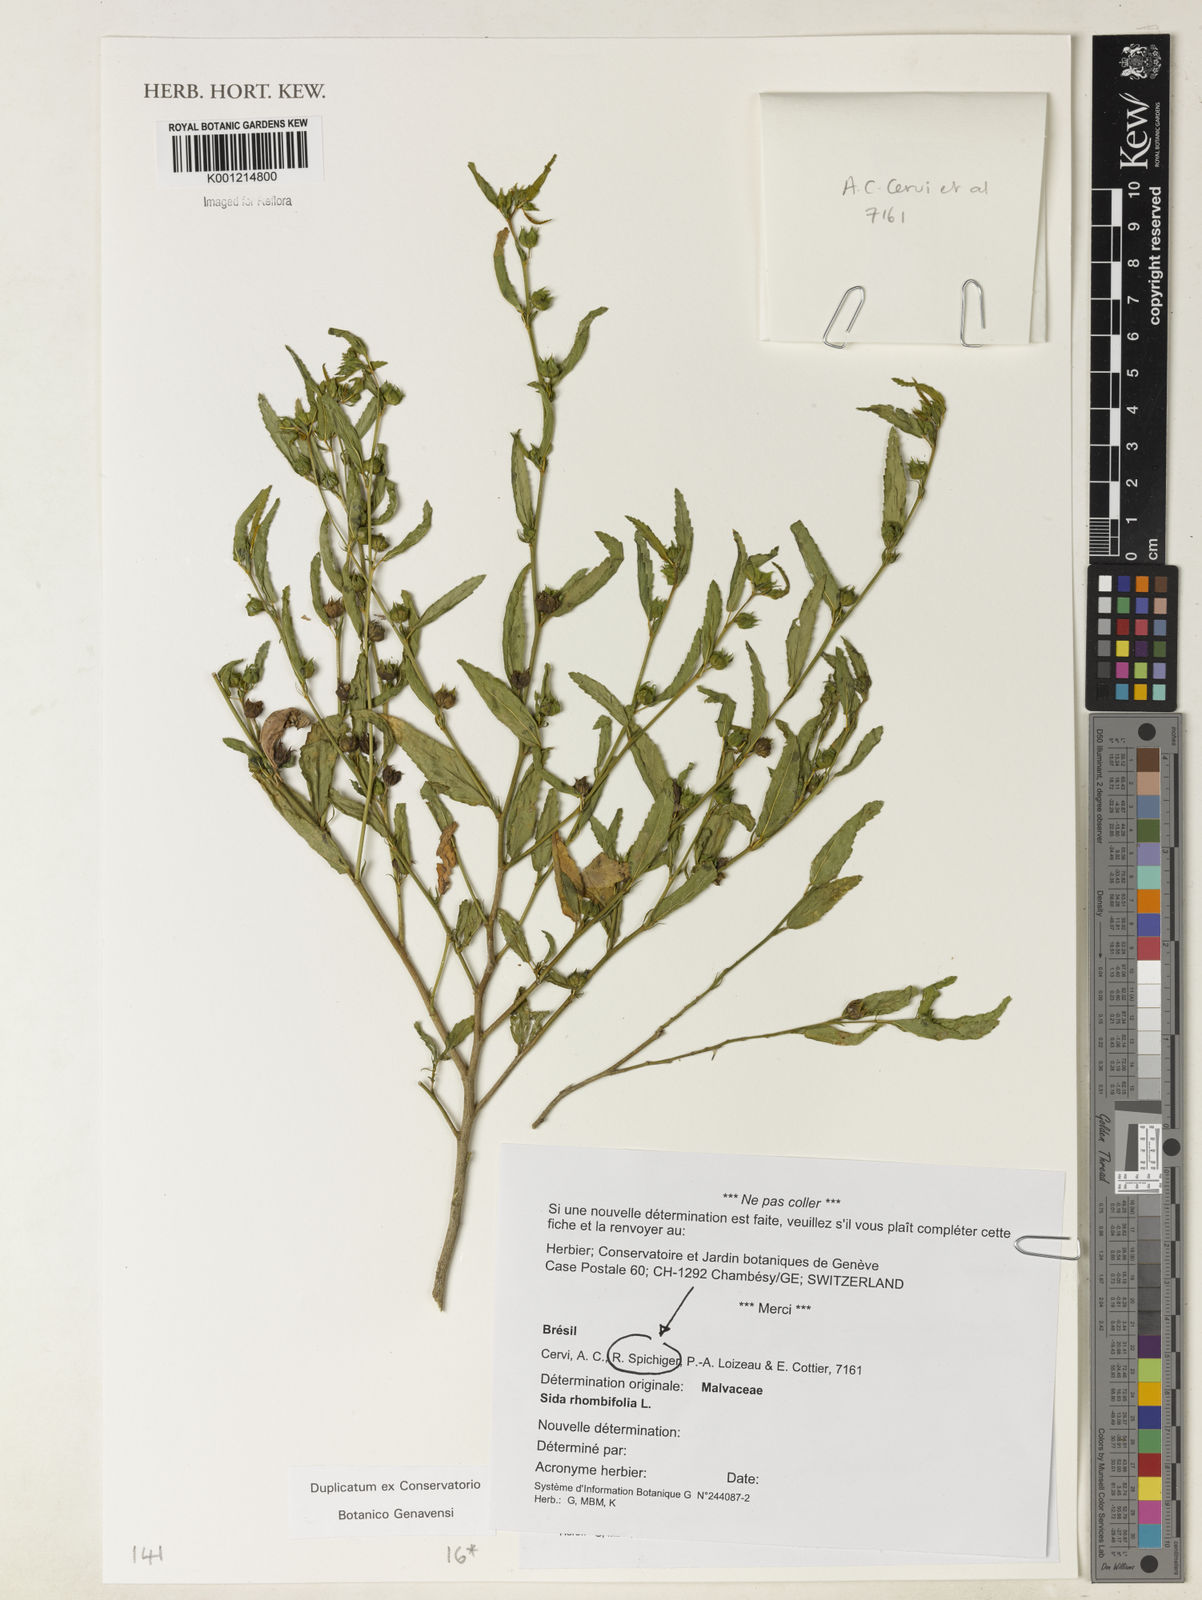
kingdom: Plantae
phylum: Tracheophyta
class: Magnoliopsida
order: Malvales
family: Malvaceae
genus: Sida
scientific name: Sida rhombifolia
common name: Queensland-hemp
